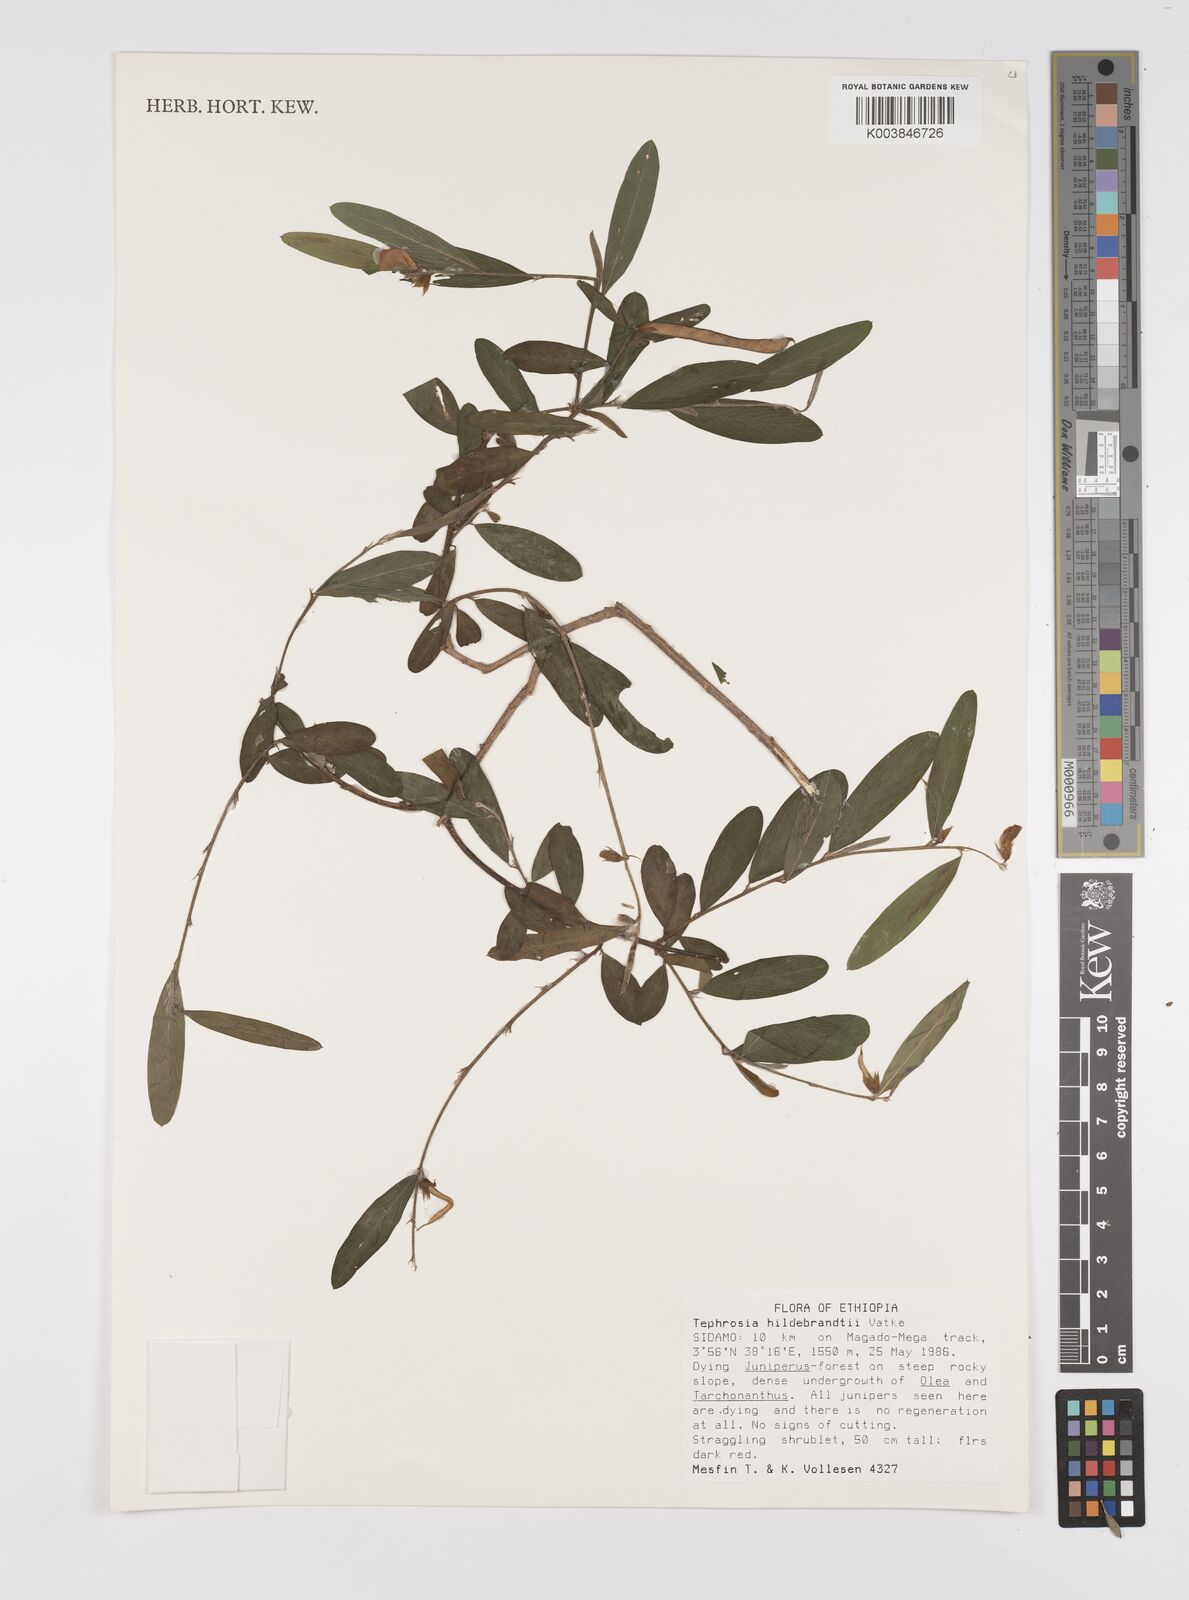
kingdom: Plantae
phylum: Tracheophyta
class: Magnoliopsida
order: Fabales
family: Fabaceae
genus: Tephrosia
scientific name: Tephrosia hildebrandtii
